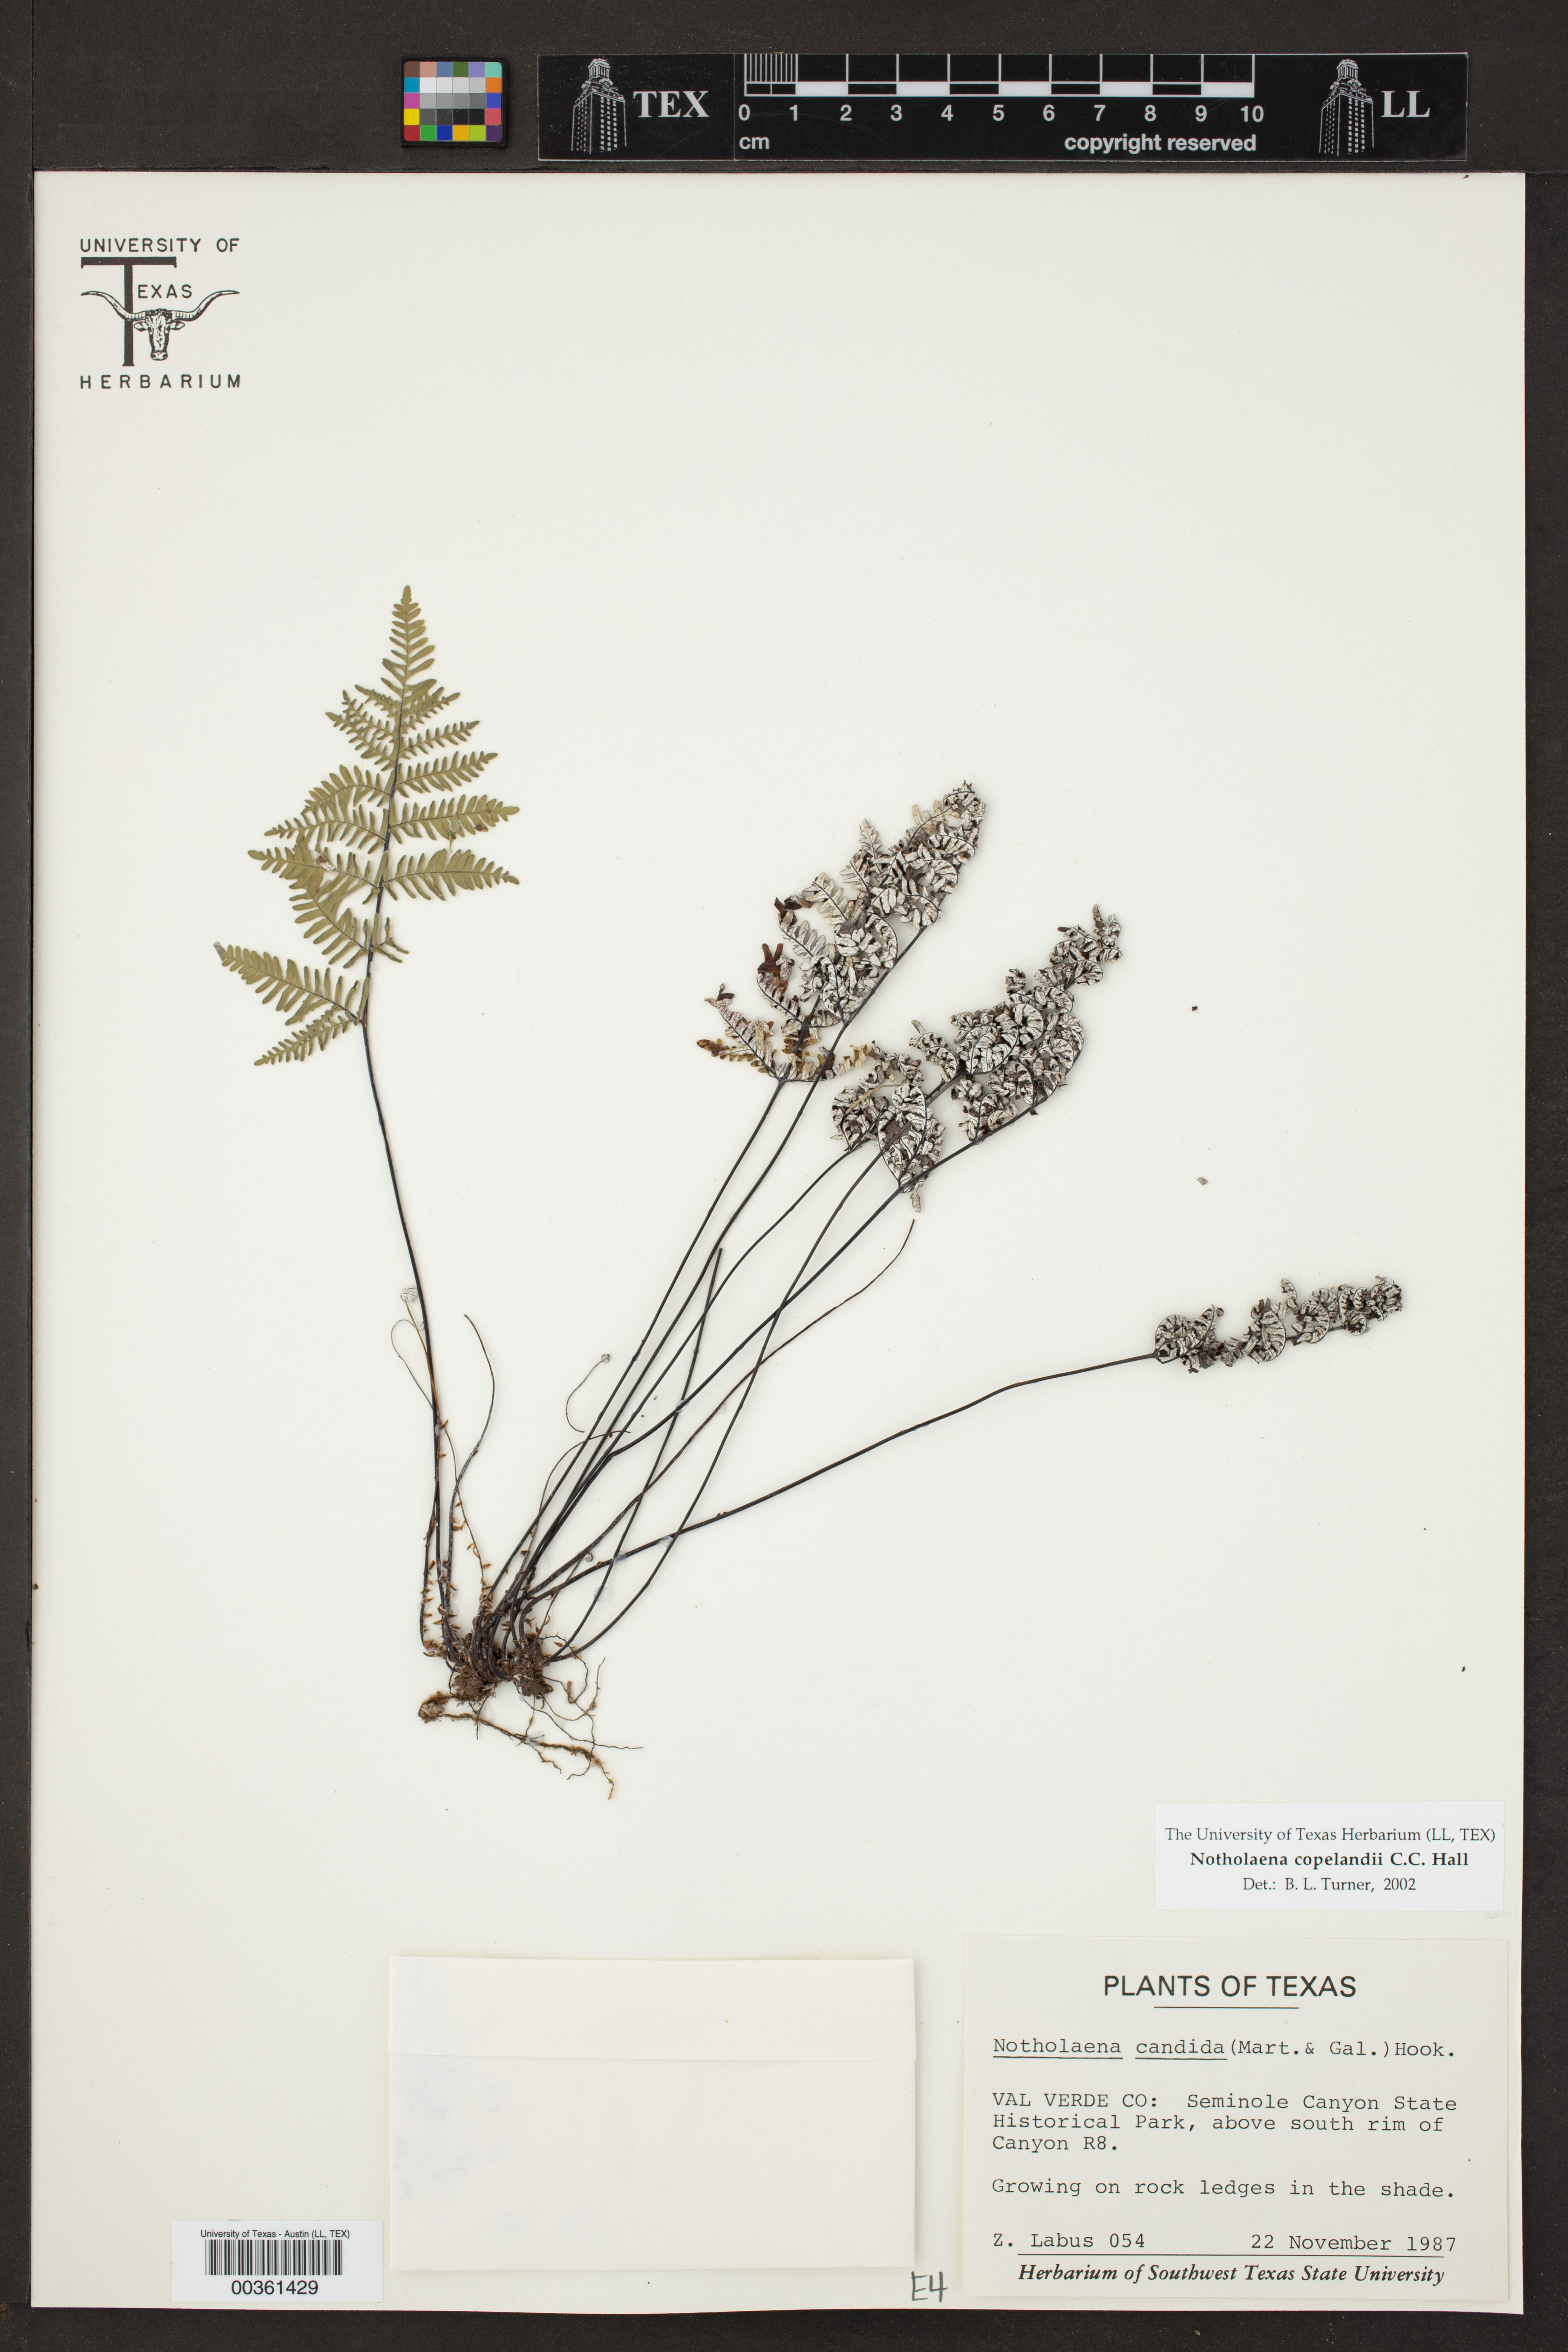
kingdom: Plantae
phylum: Tracheophyta
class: Polypodiopsida
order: Polypodiales
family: Pteridaceae
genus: Notholaena
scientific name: Notholaena candida
